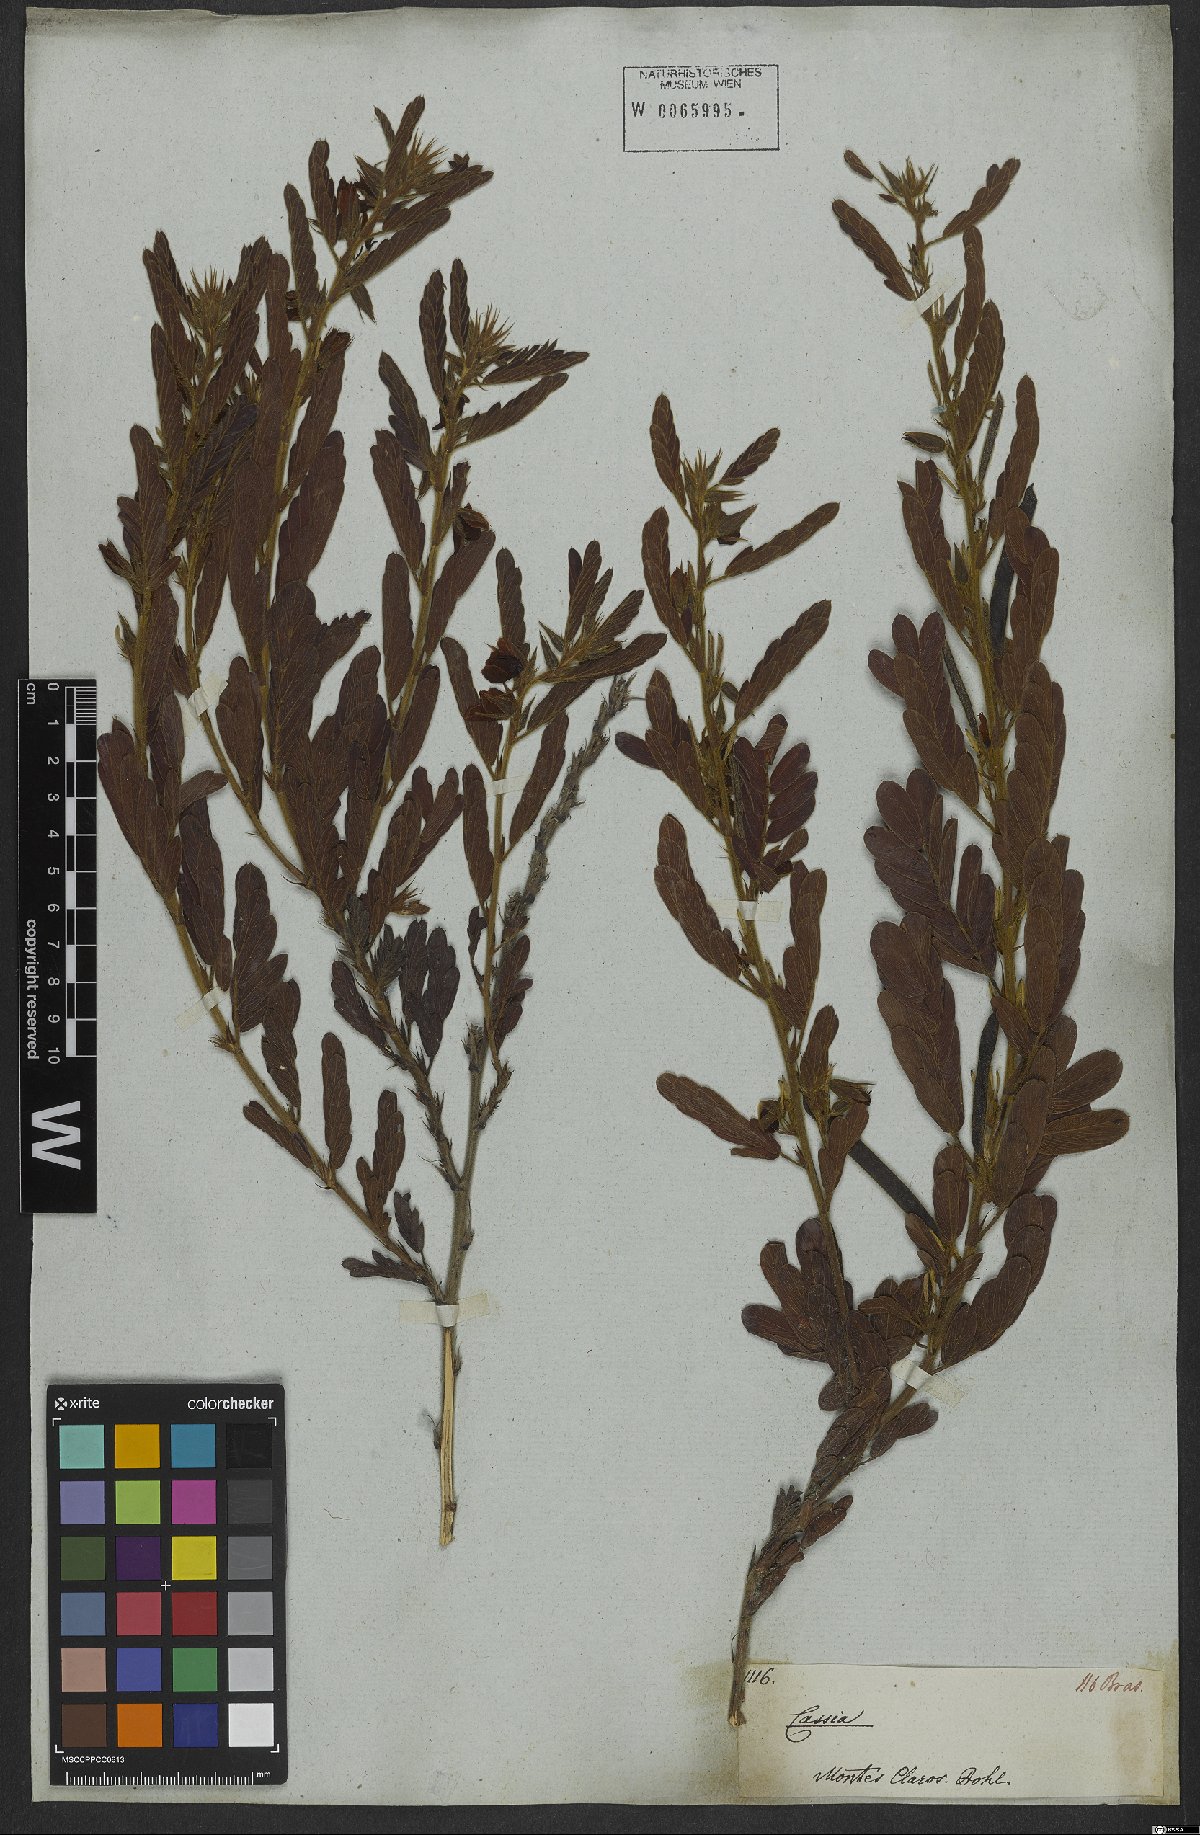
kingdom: Plantae
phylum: Tracheophyta
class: Magnoliopsida
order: Fabales
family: Fabaceae
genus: Chamaecrista
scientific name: Chamaecrista repens
